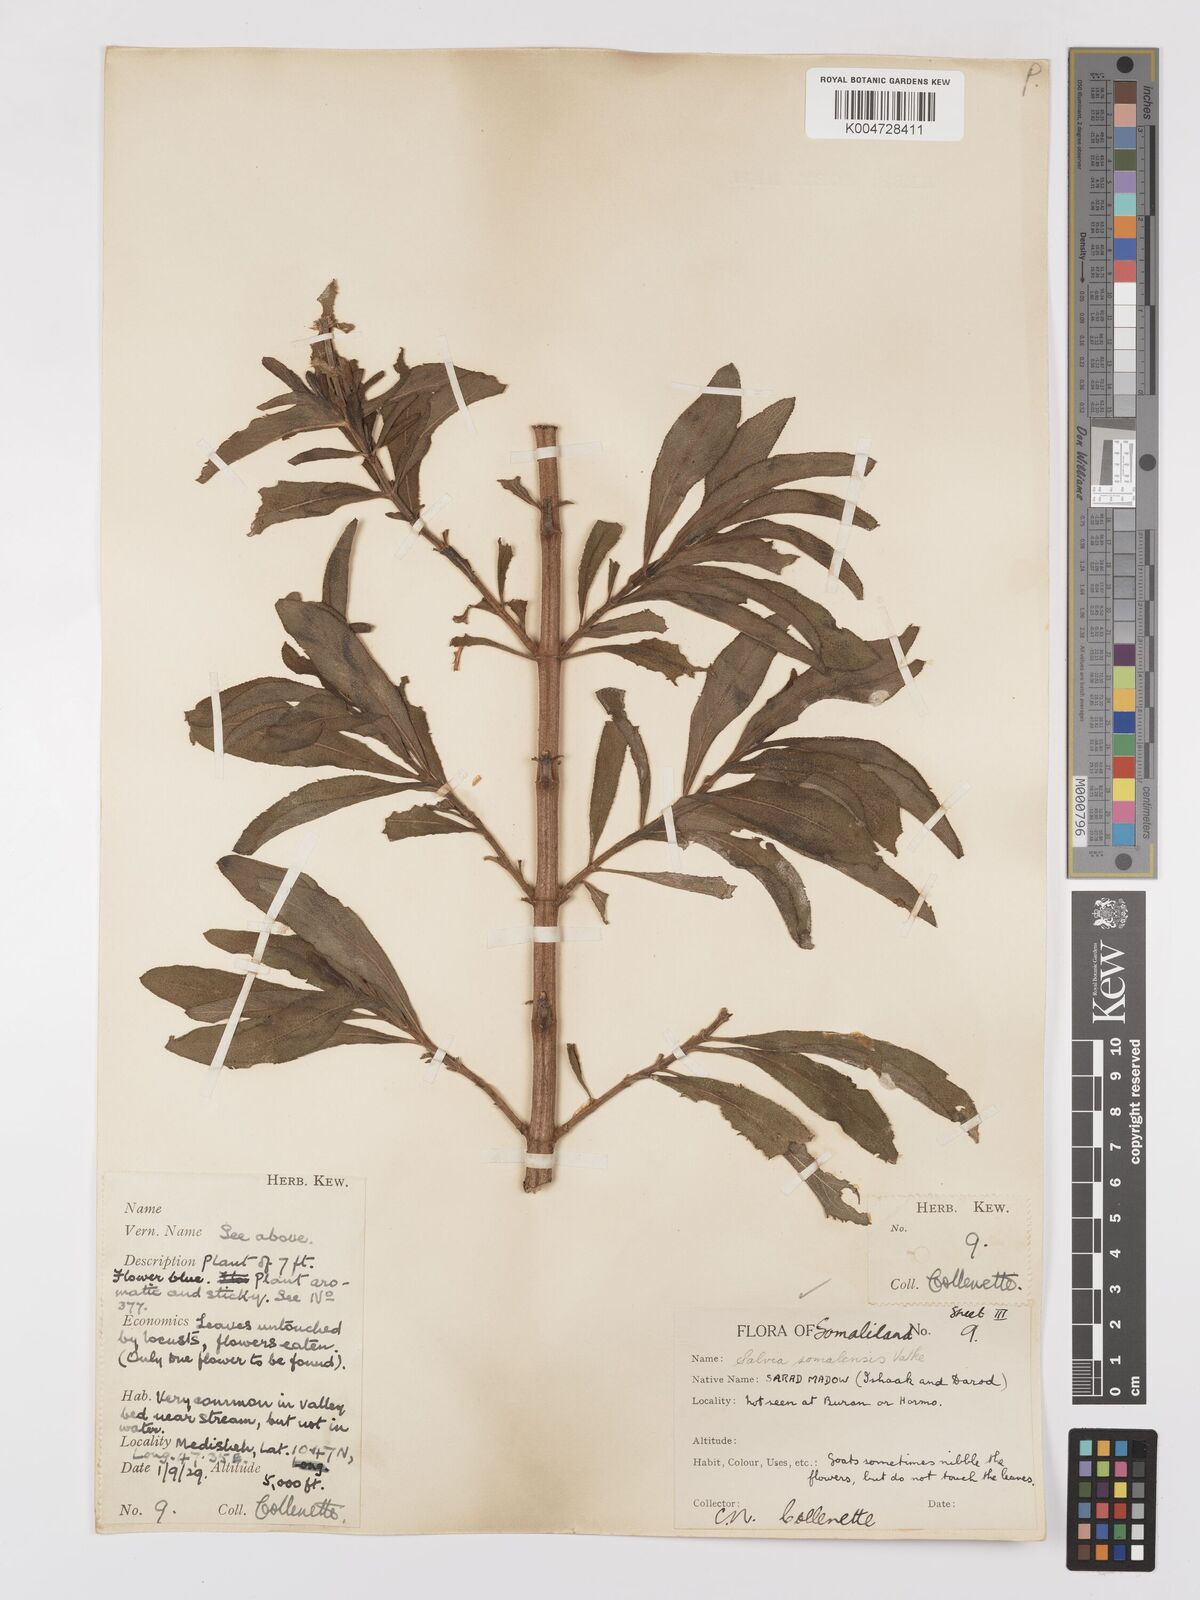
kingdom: Plantae
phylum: Tracheophyta
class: Magnoliopsida
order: Lamiales
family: Lamiaceae
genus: Salvia
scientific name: Salvia somalensis
